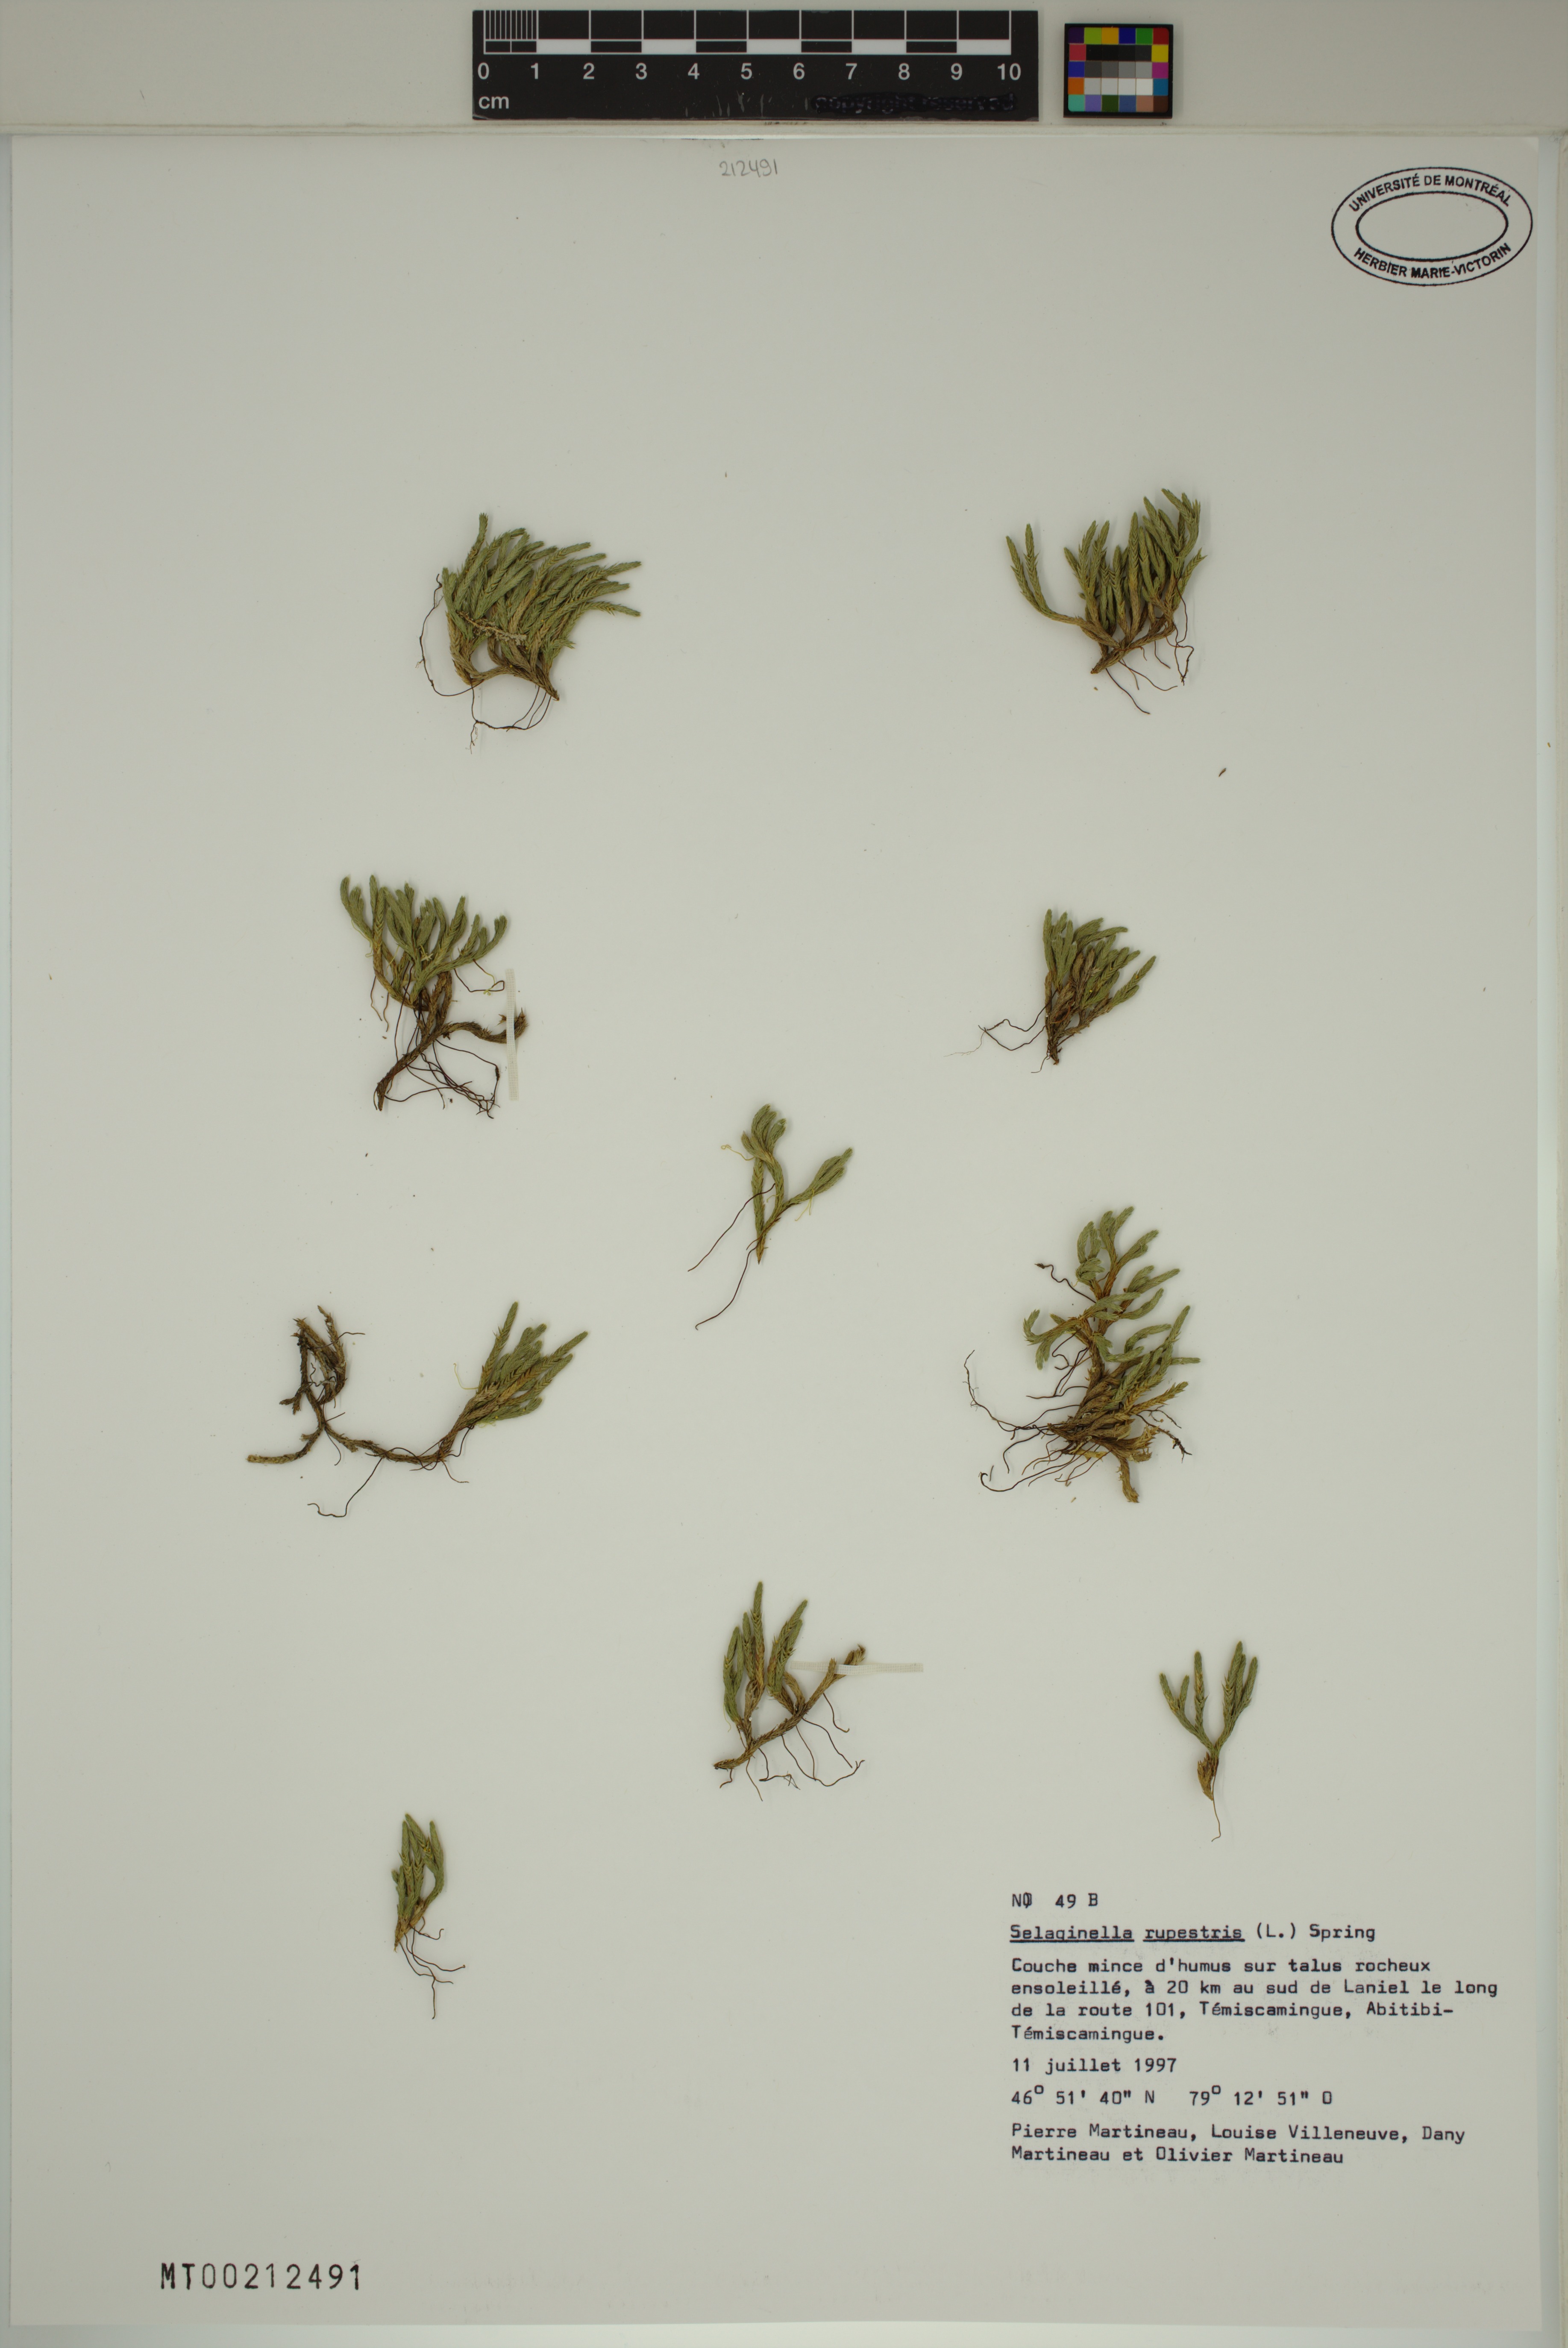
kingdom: Plantae
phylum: Tracheophyta
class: Lycopodiopsida
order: Selaginellales
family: Selaginellaceae
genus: Selaginella
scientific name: Selaginella rupestris
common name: Dwarf spikemoss
